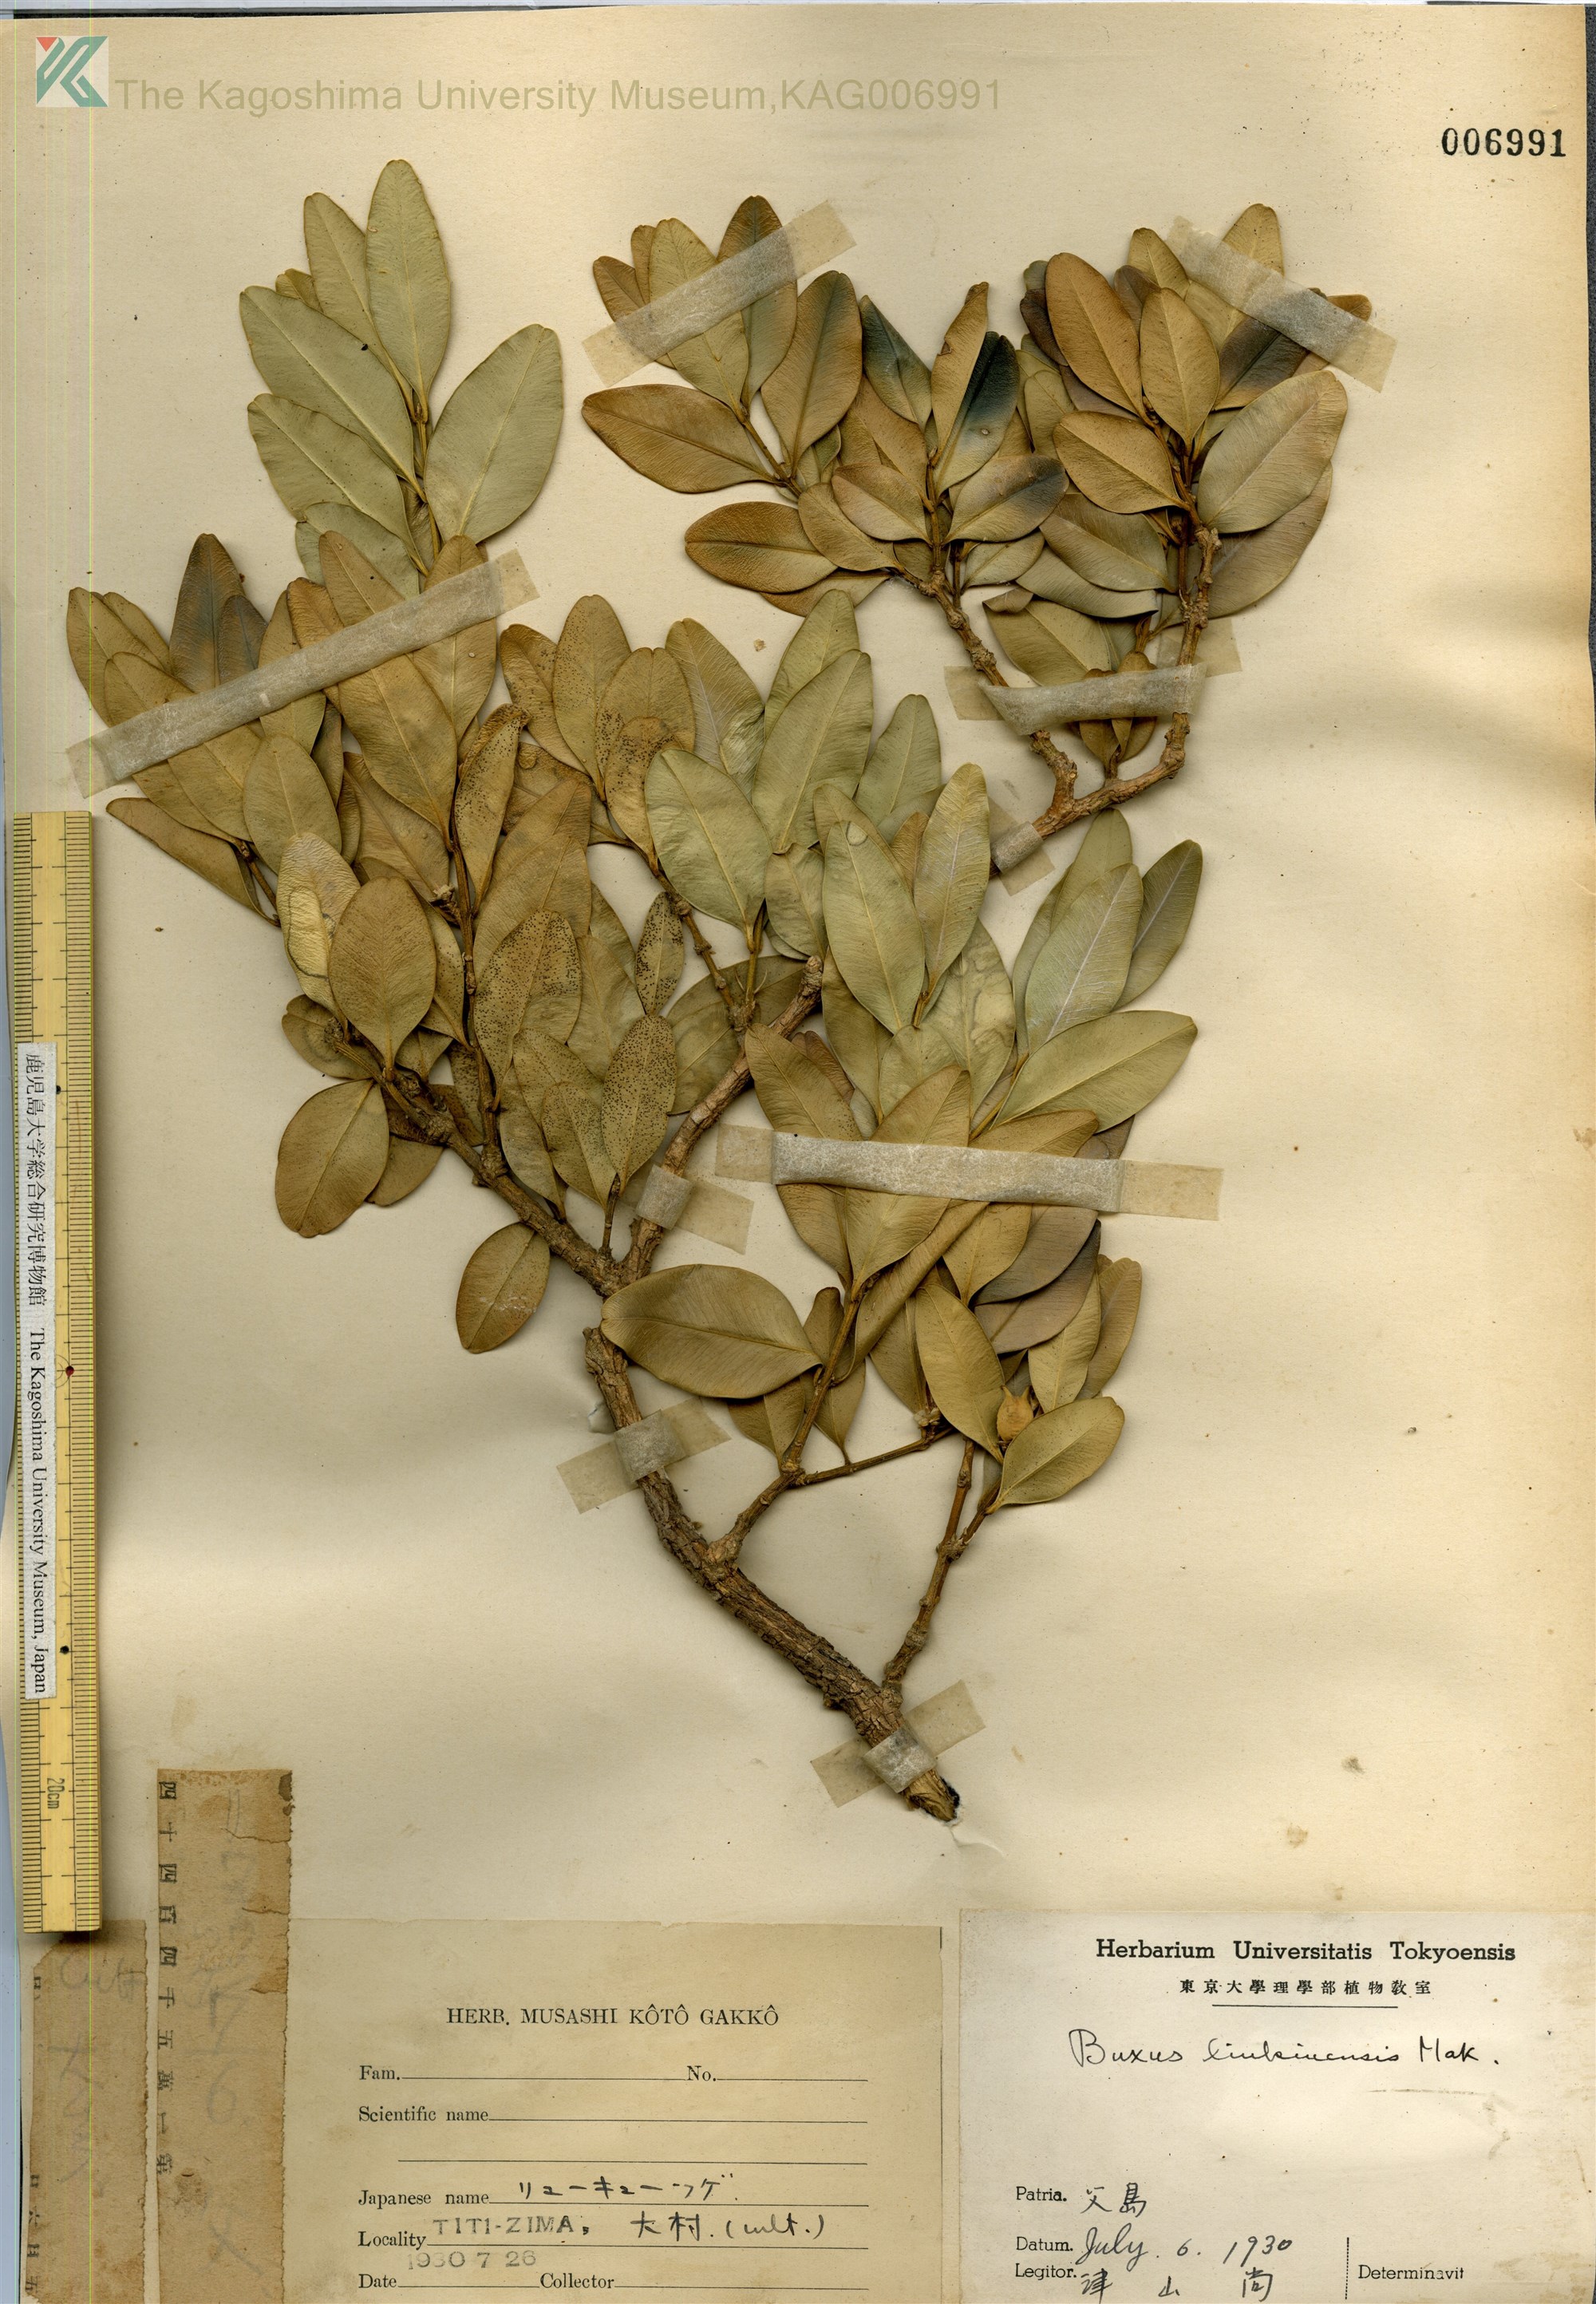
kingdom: Plantae
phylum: Tracheophyta
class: Magnoliopsida
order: Buxales
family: Buxaceae
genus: Buxus
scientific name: Buxus liukiuensis
